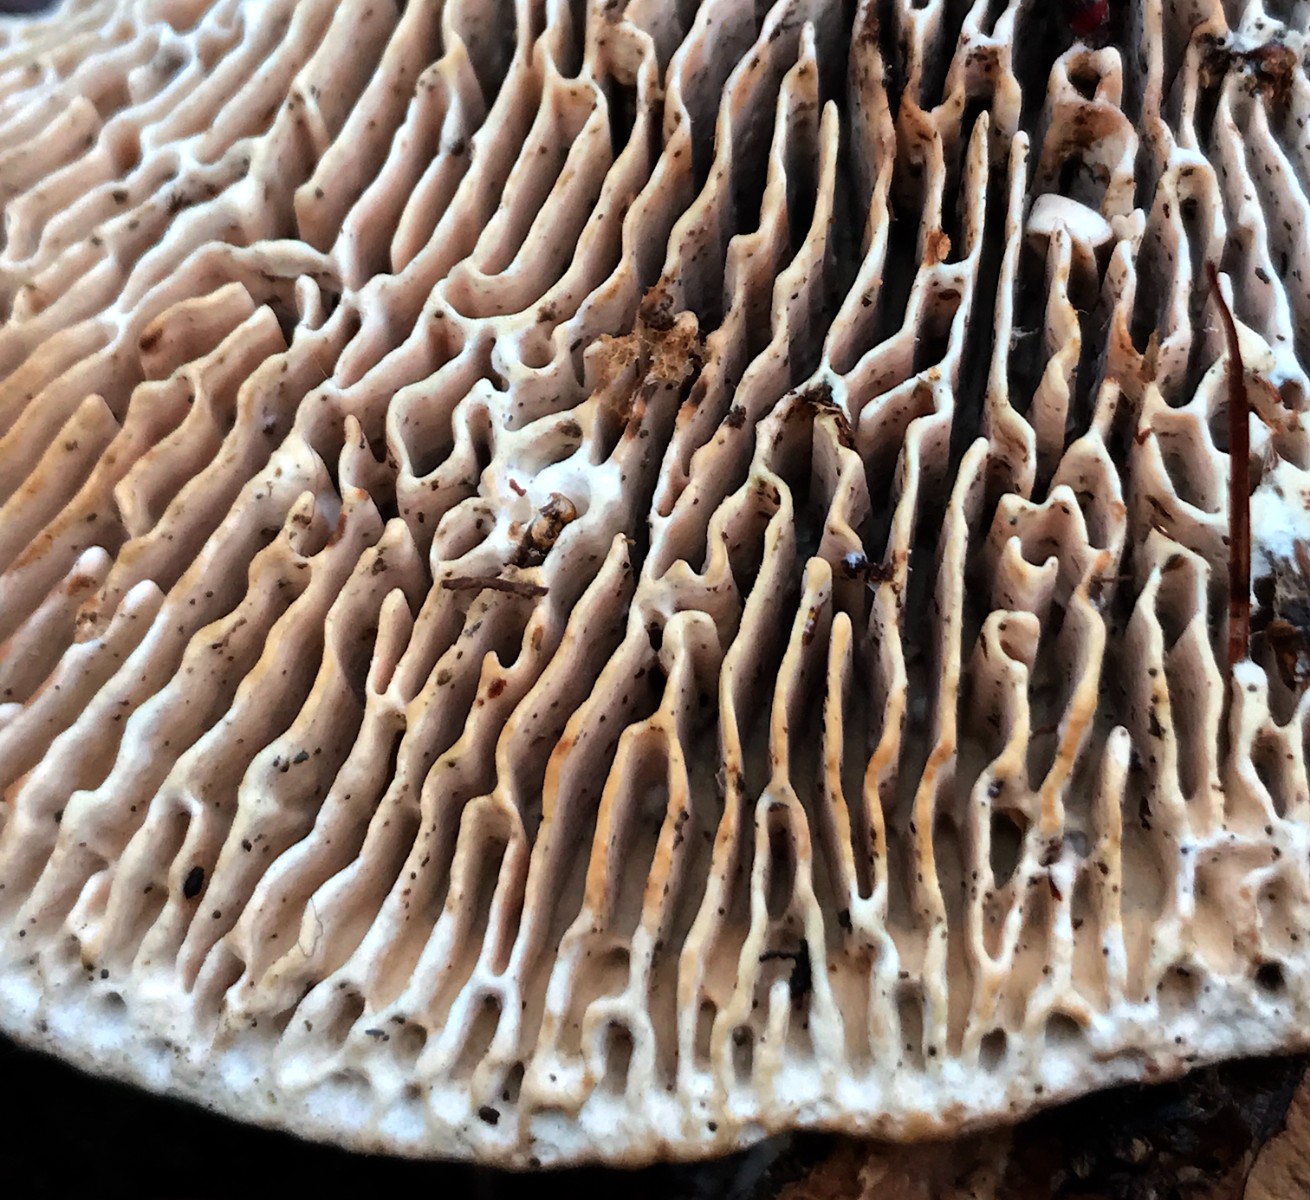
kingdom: Fungi
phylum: Basidiomycota
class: Agaricomycetes
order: Polyporales
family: Fomitopsidaceae
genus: Daedalea
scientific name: Daedalea quercina
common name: ege-labyrintsvamp
